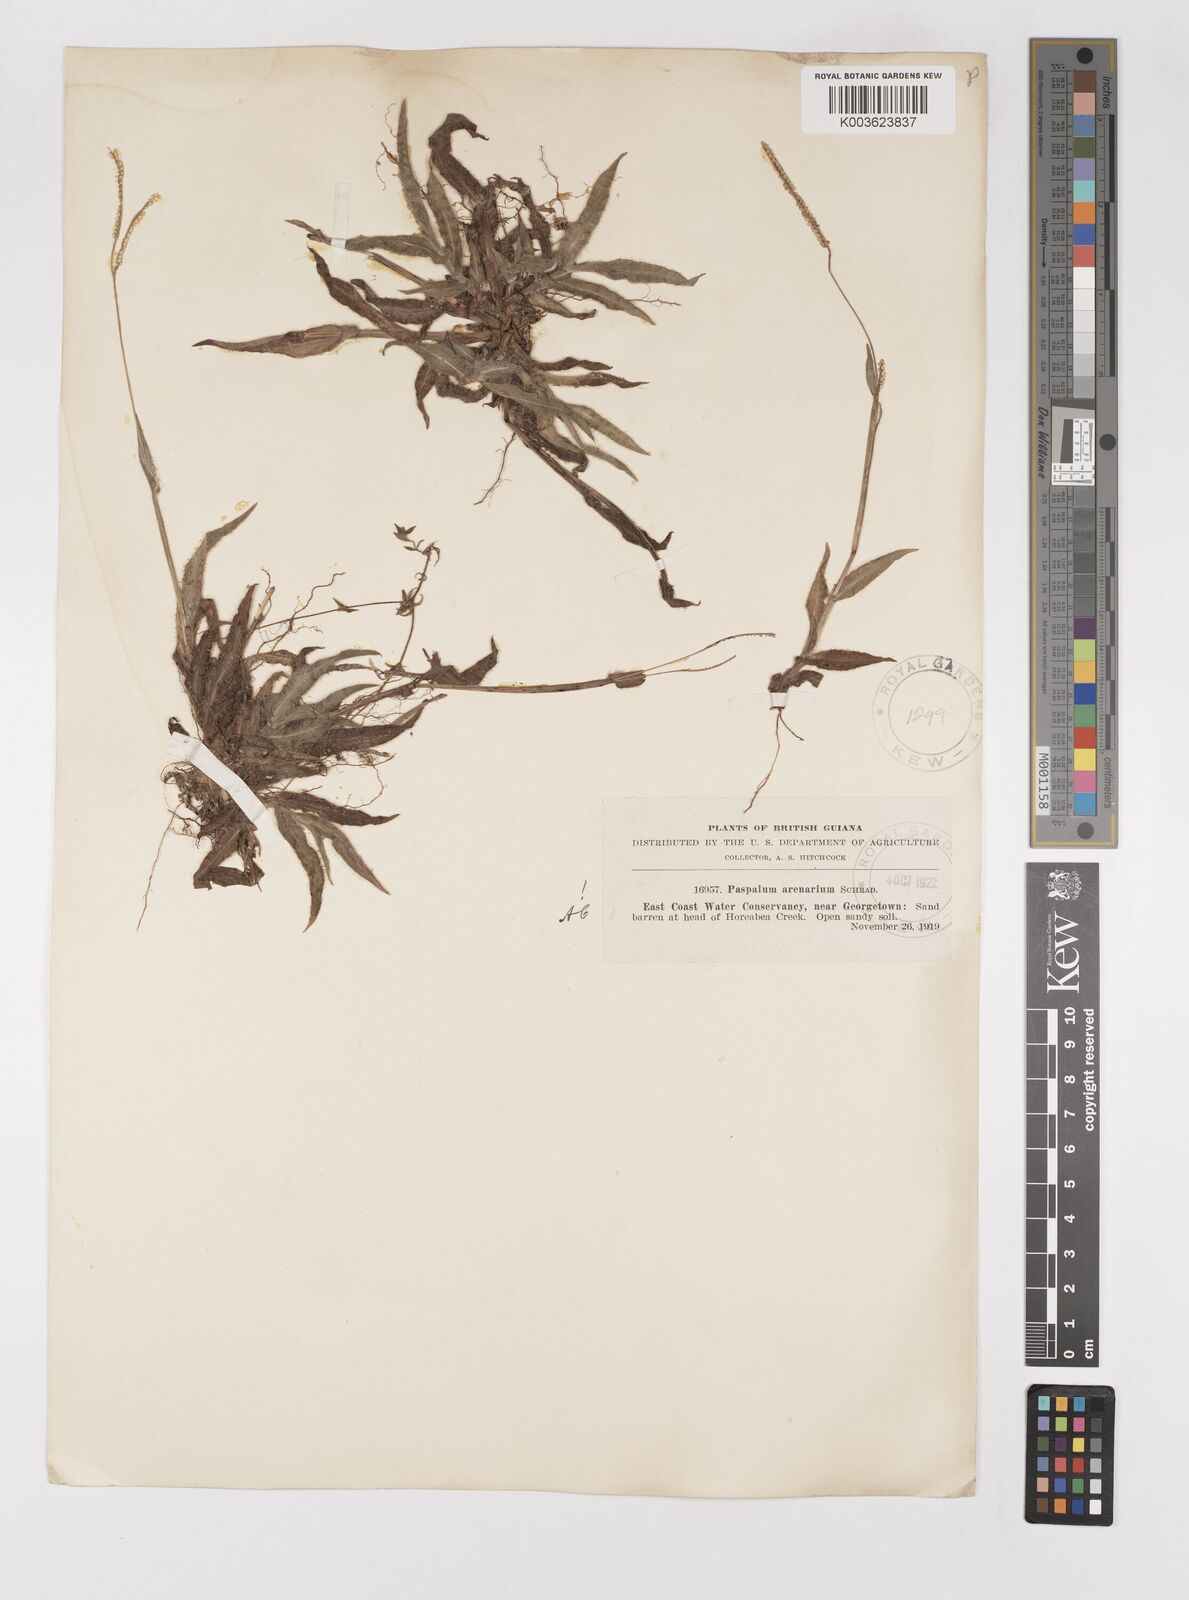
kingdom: Plantae
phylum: Tracheophyta
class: Liliopsida
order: Poales
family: Poaceae
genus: Paspalum
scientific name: Paspalum arenarium
